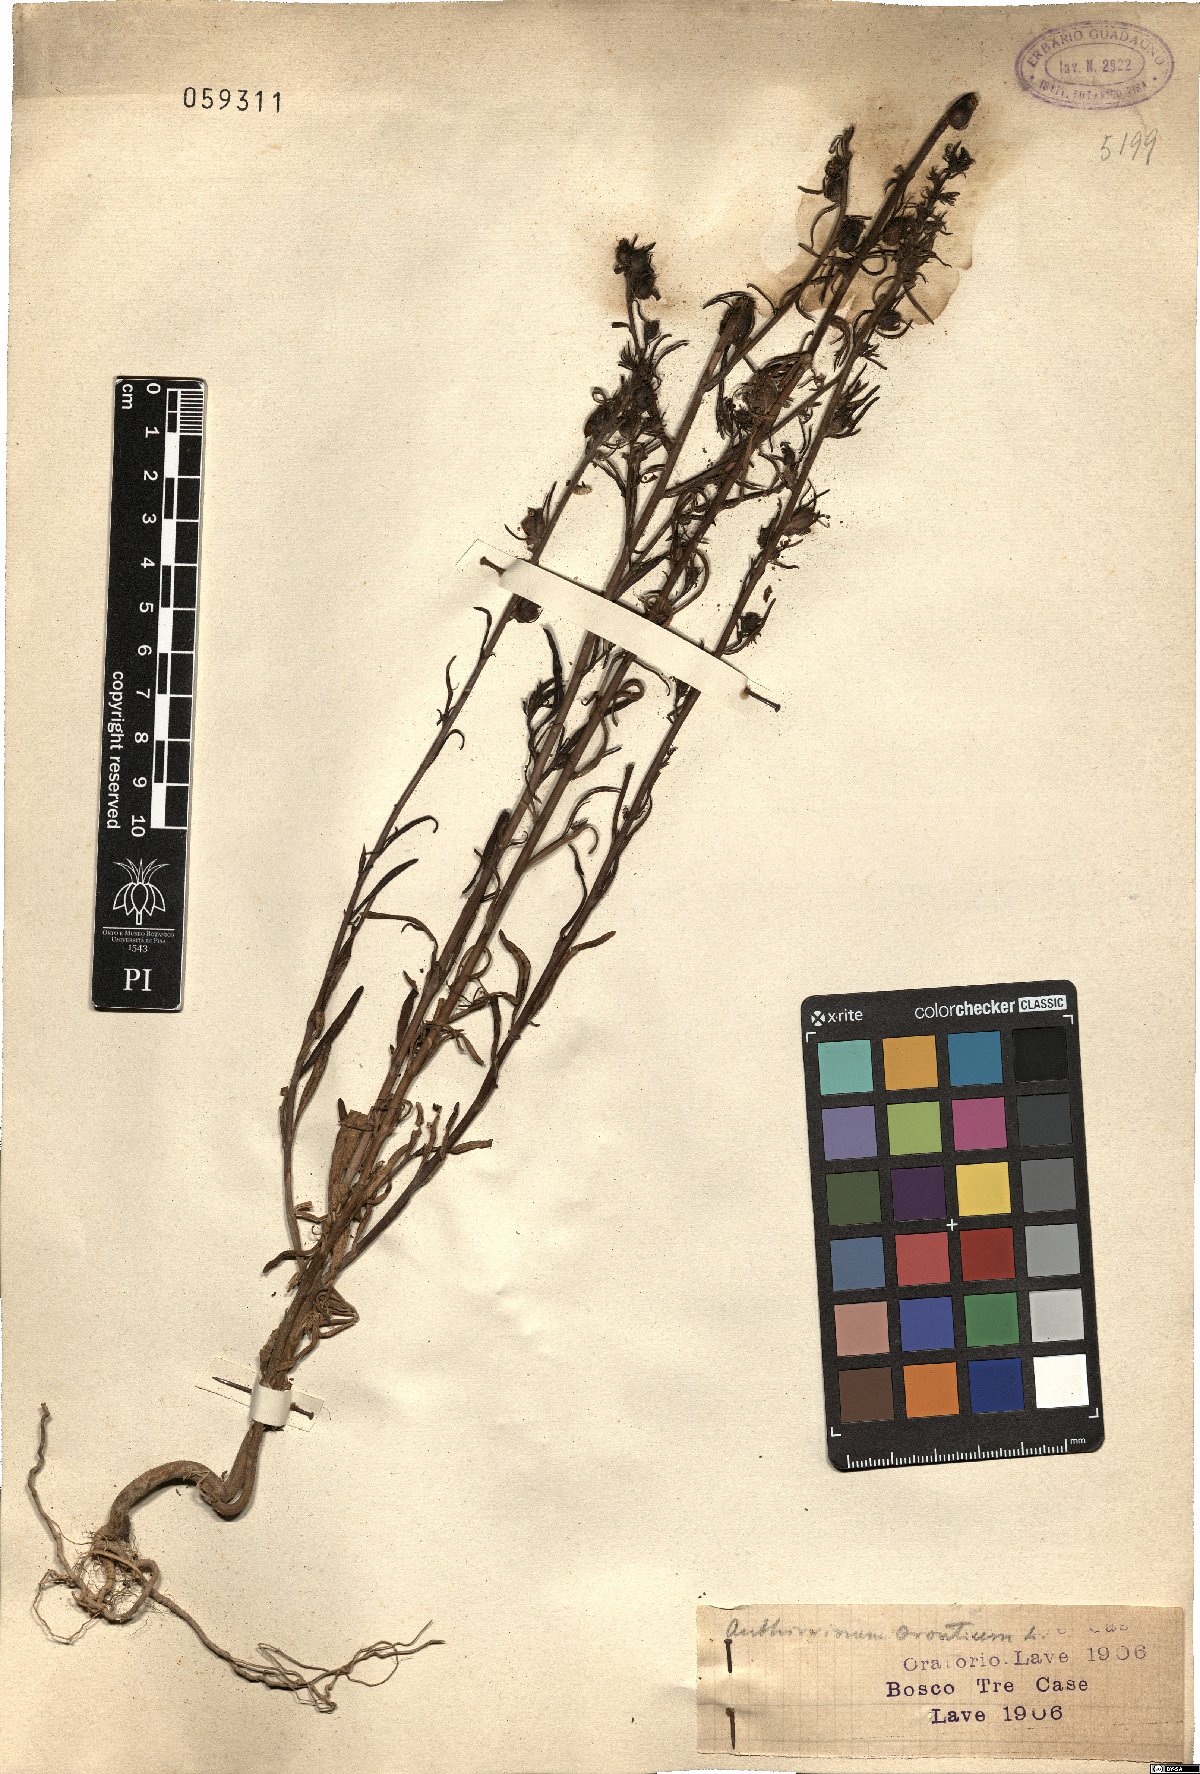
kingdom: Plantae
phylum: Tracheophyta
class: Magnoliopsida
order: Lamiales
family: Plantaginaceae
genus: Misopates
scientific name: Misopates orontium
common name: Weasel's-snout
